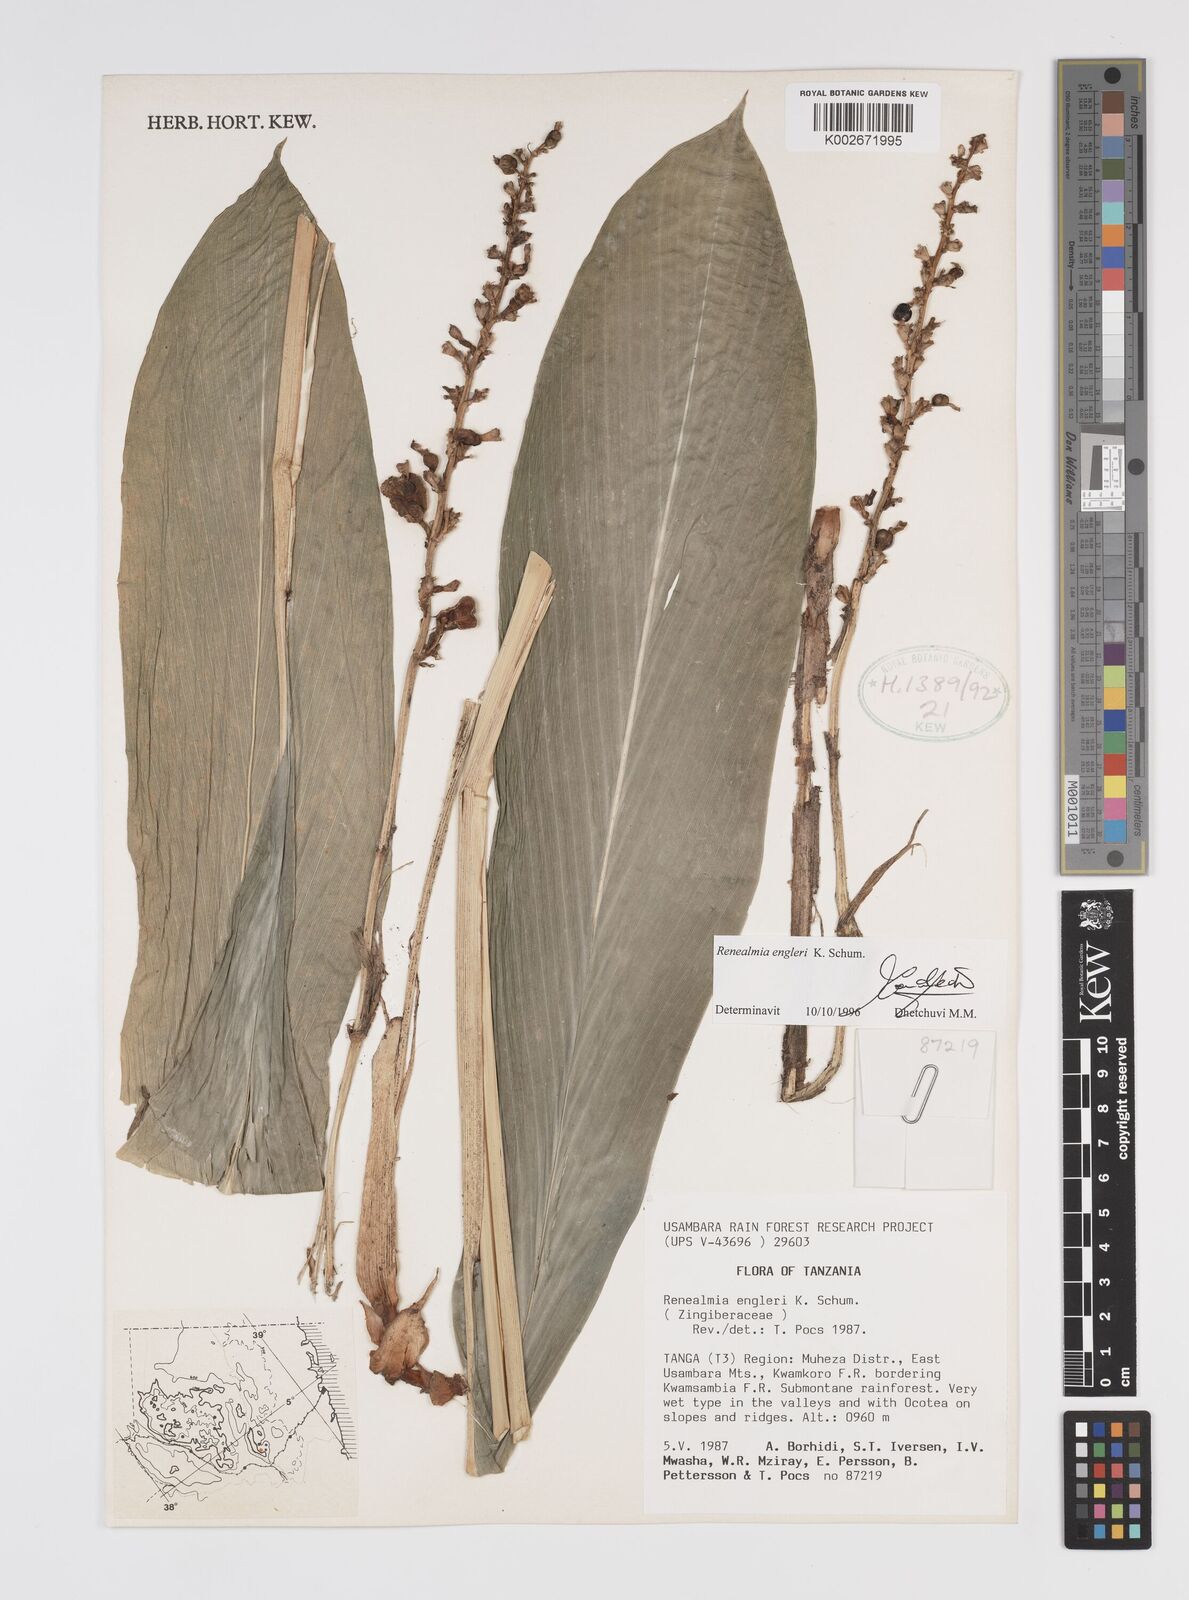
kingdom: Plantae
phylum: Tracheophyta
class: Liliopsida
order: Zingiberales
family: Zingiberaceae
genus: Renealmia
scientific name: Renealmia engleri
